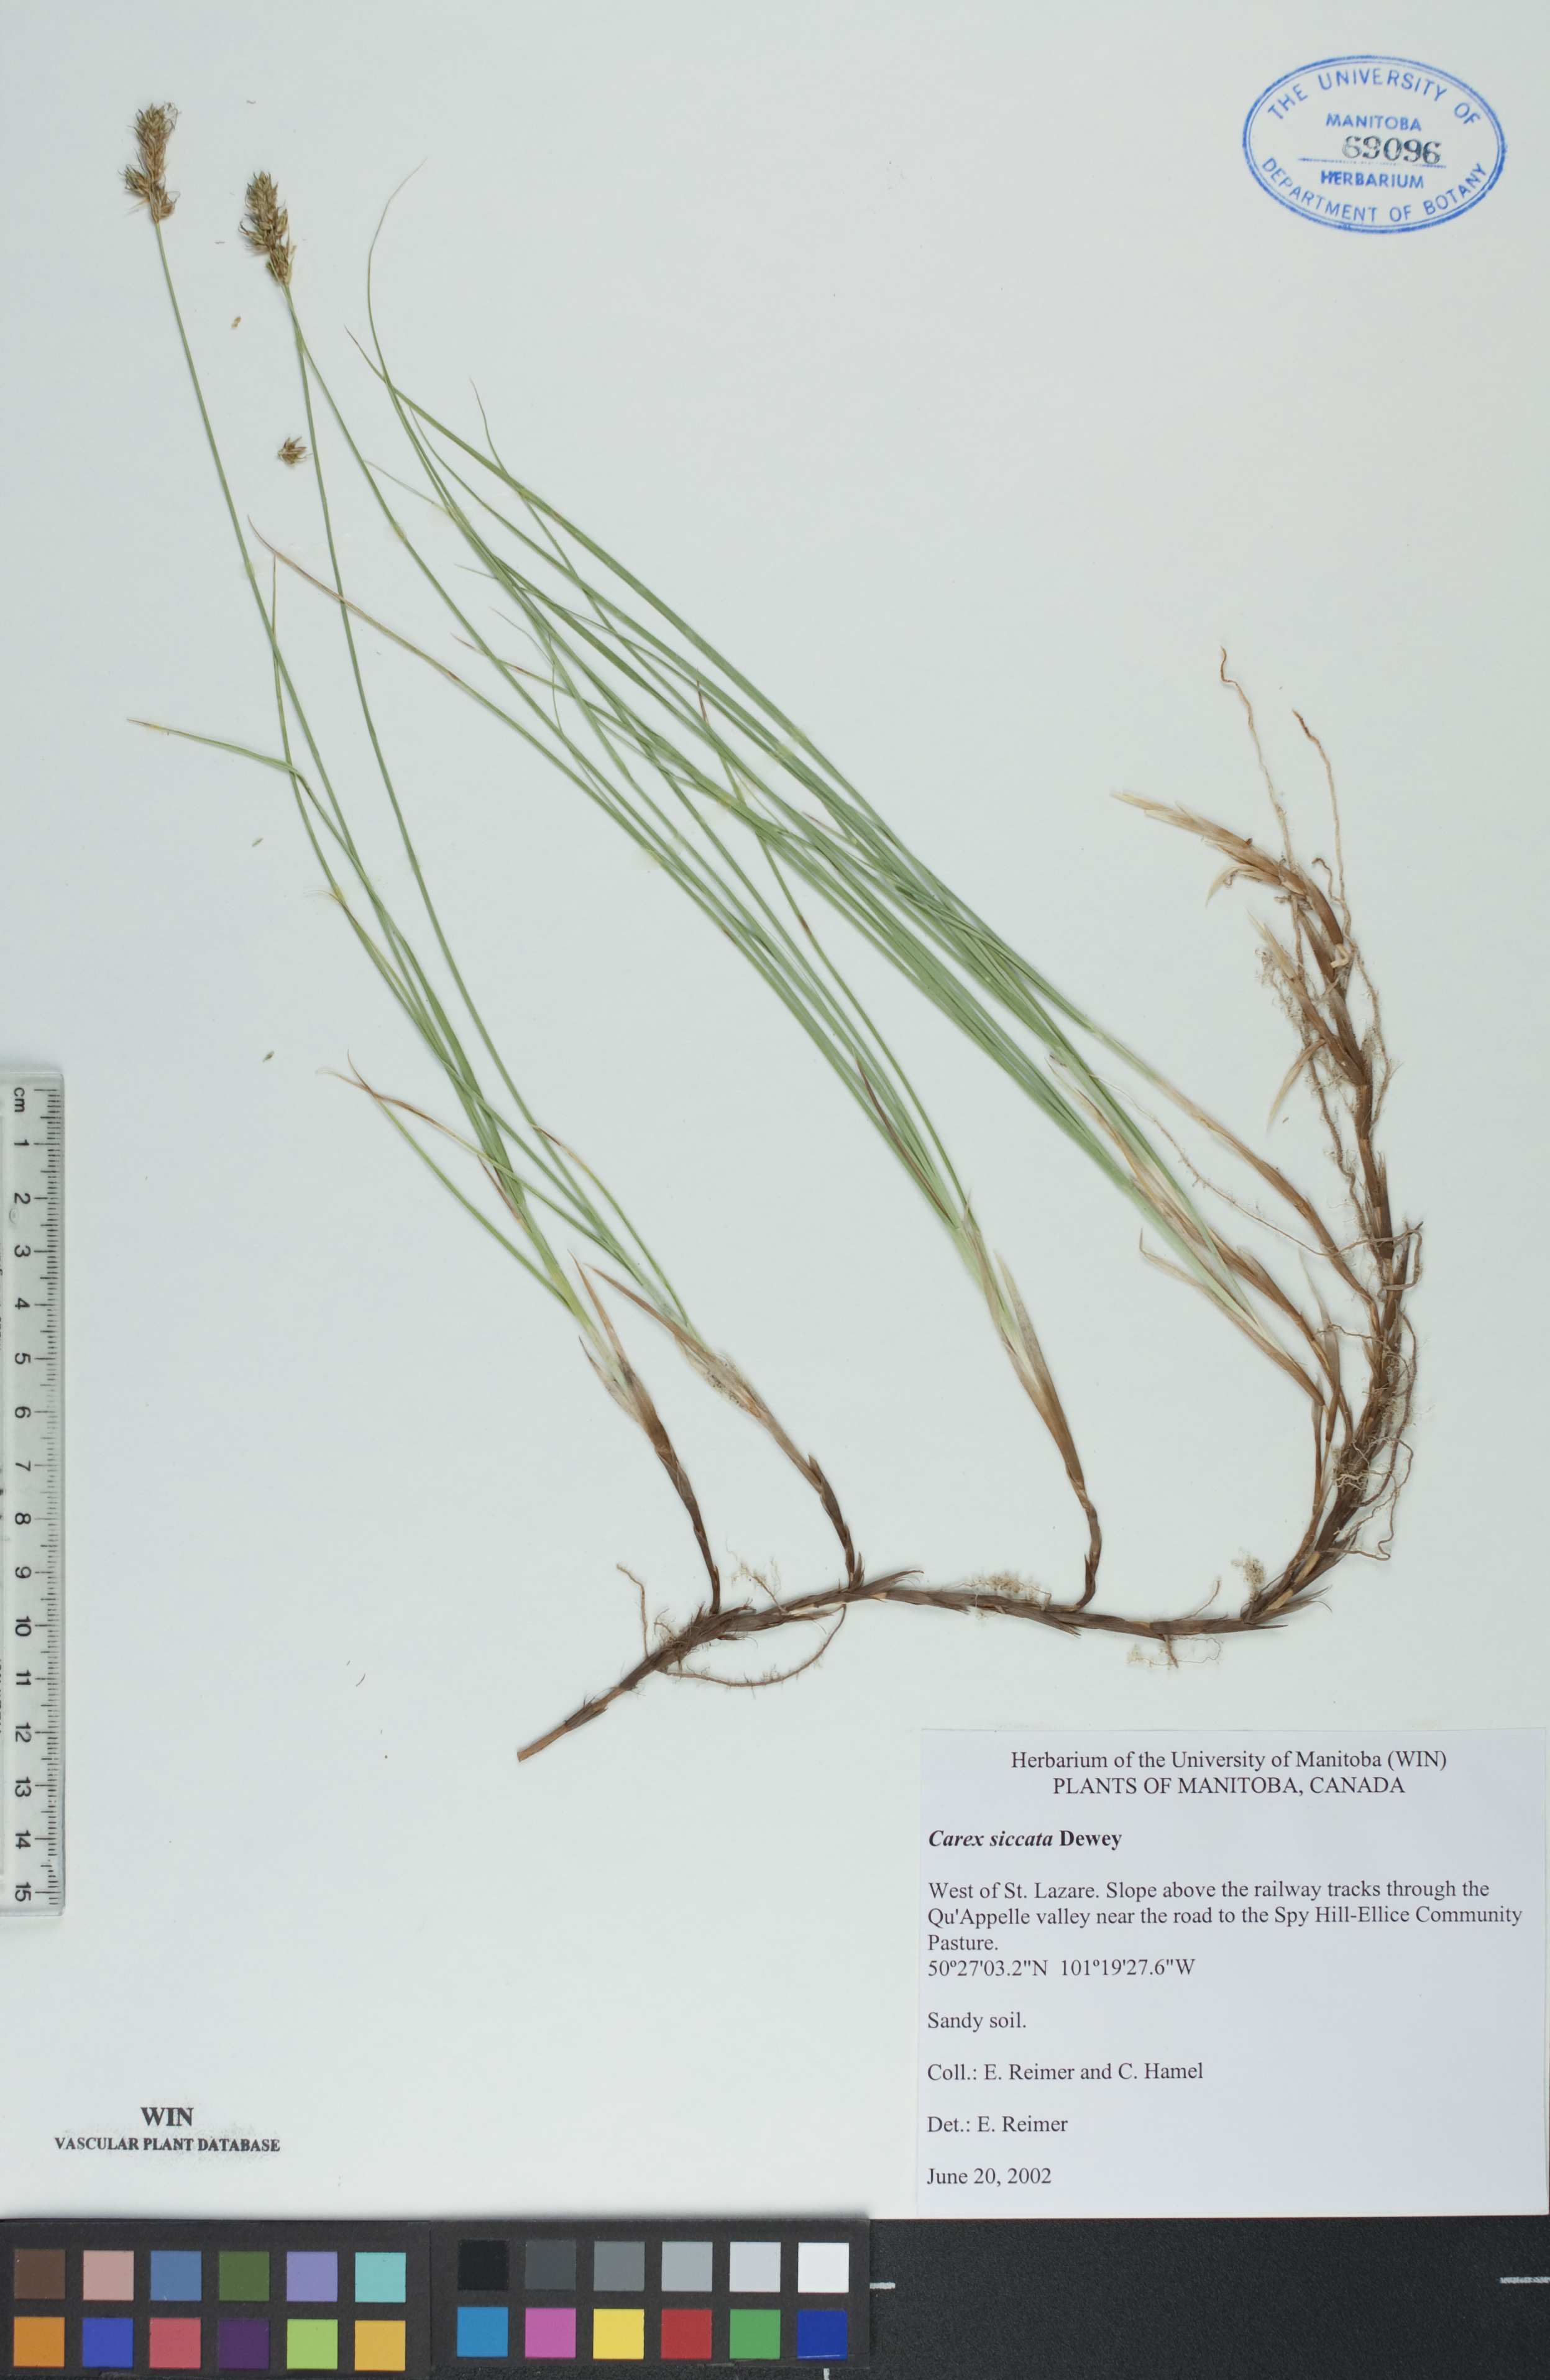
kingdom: Plantae
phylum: Tracheophyta
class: Liliopsida
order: Poales
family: Cyperaceae
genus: Carex
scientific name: Carex siccata
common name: Dry sedge
